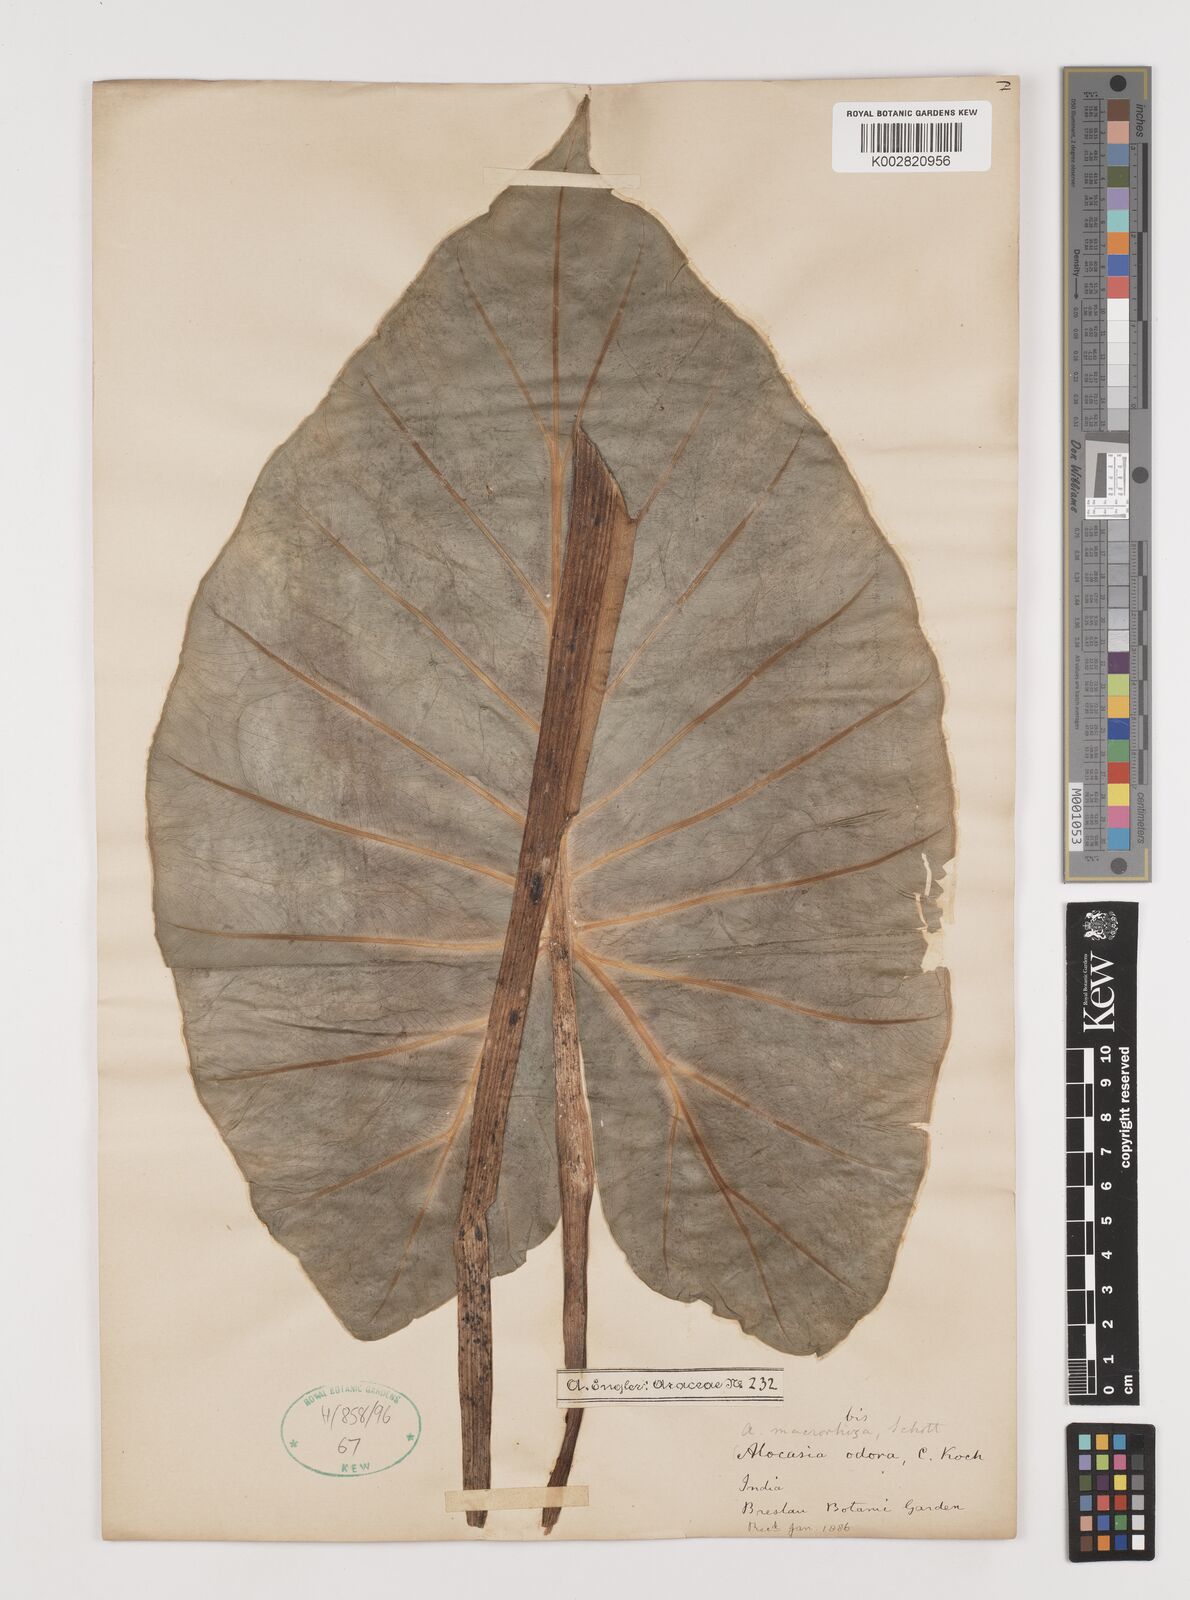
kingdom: Plantae
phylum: Tracheophyta
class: Liliopsida
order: Alismatales
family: Araceae
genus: Alocasia
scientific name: Alocasia odora
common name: Asian taro
